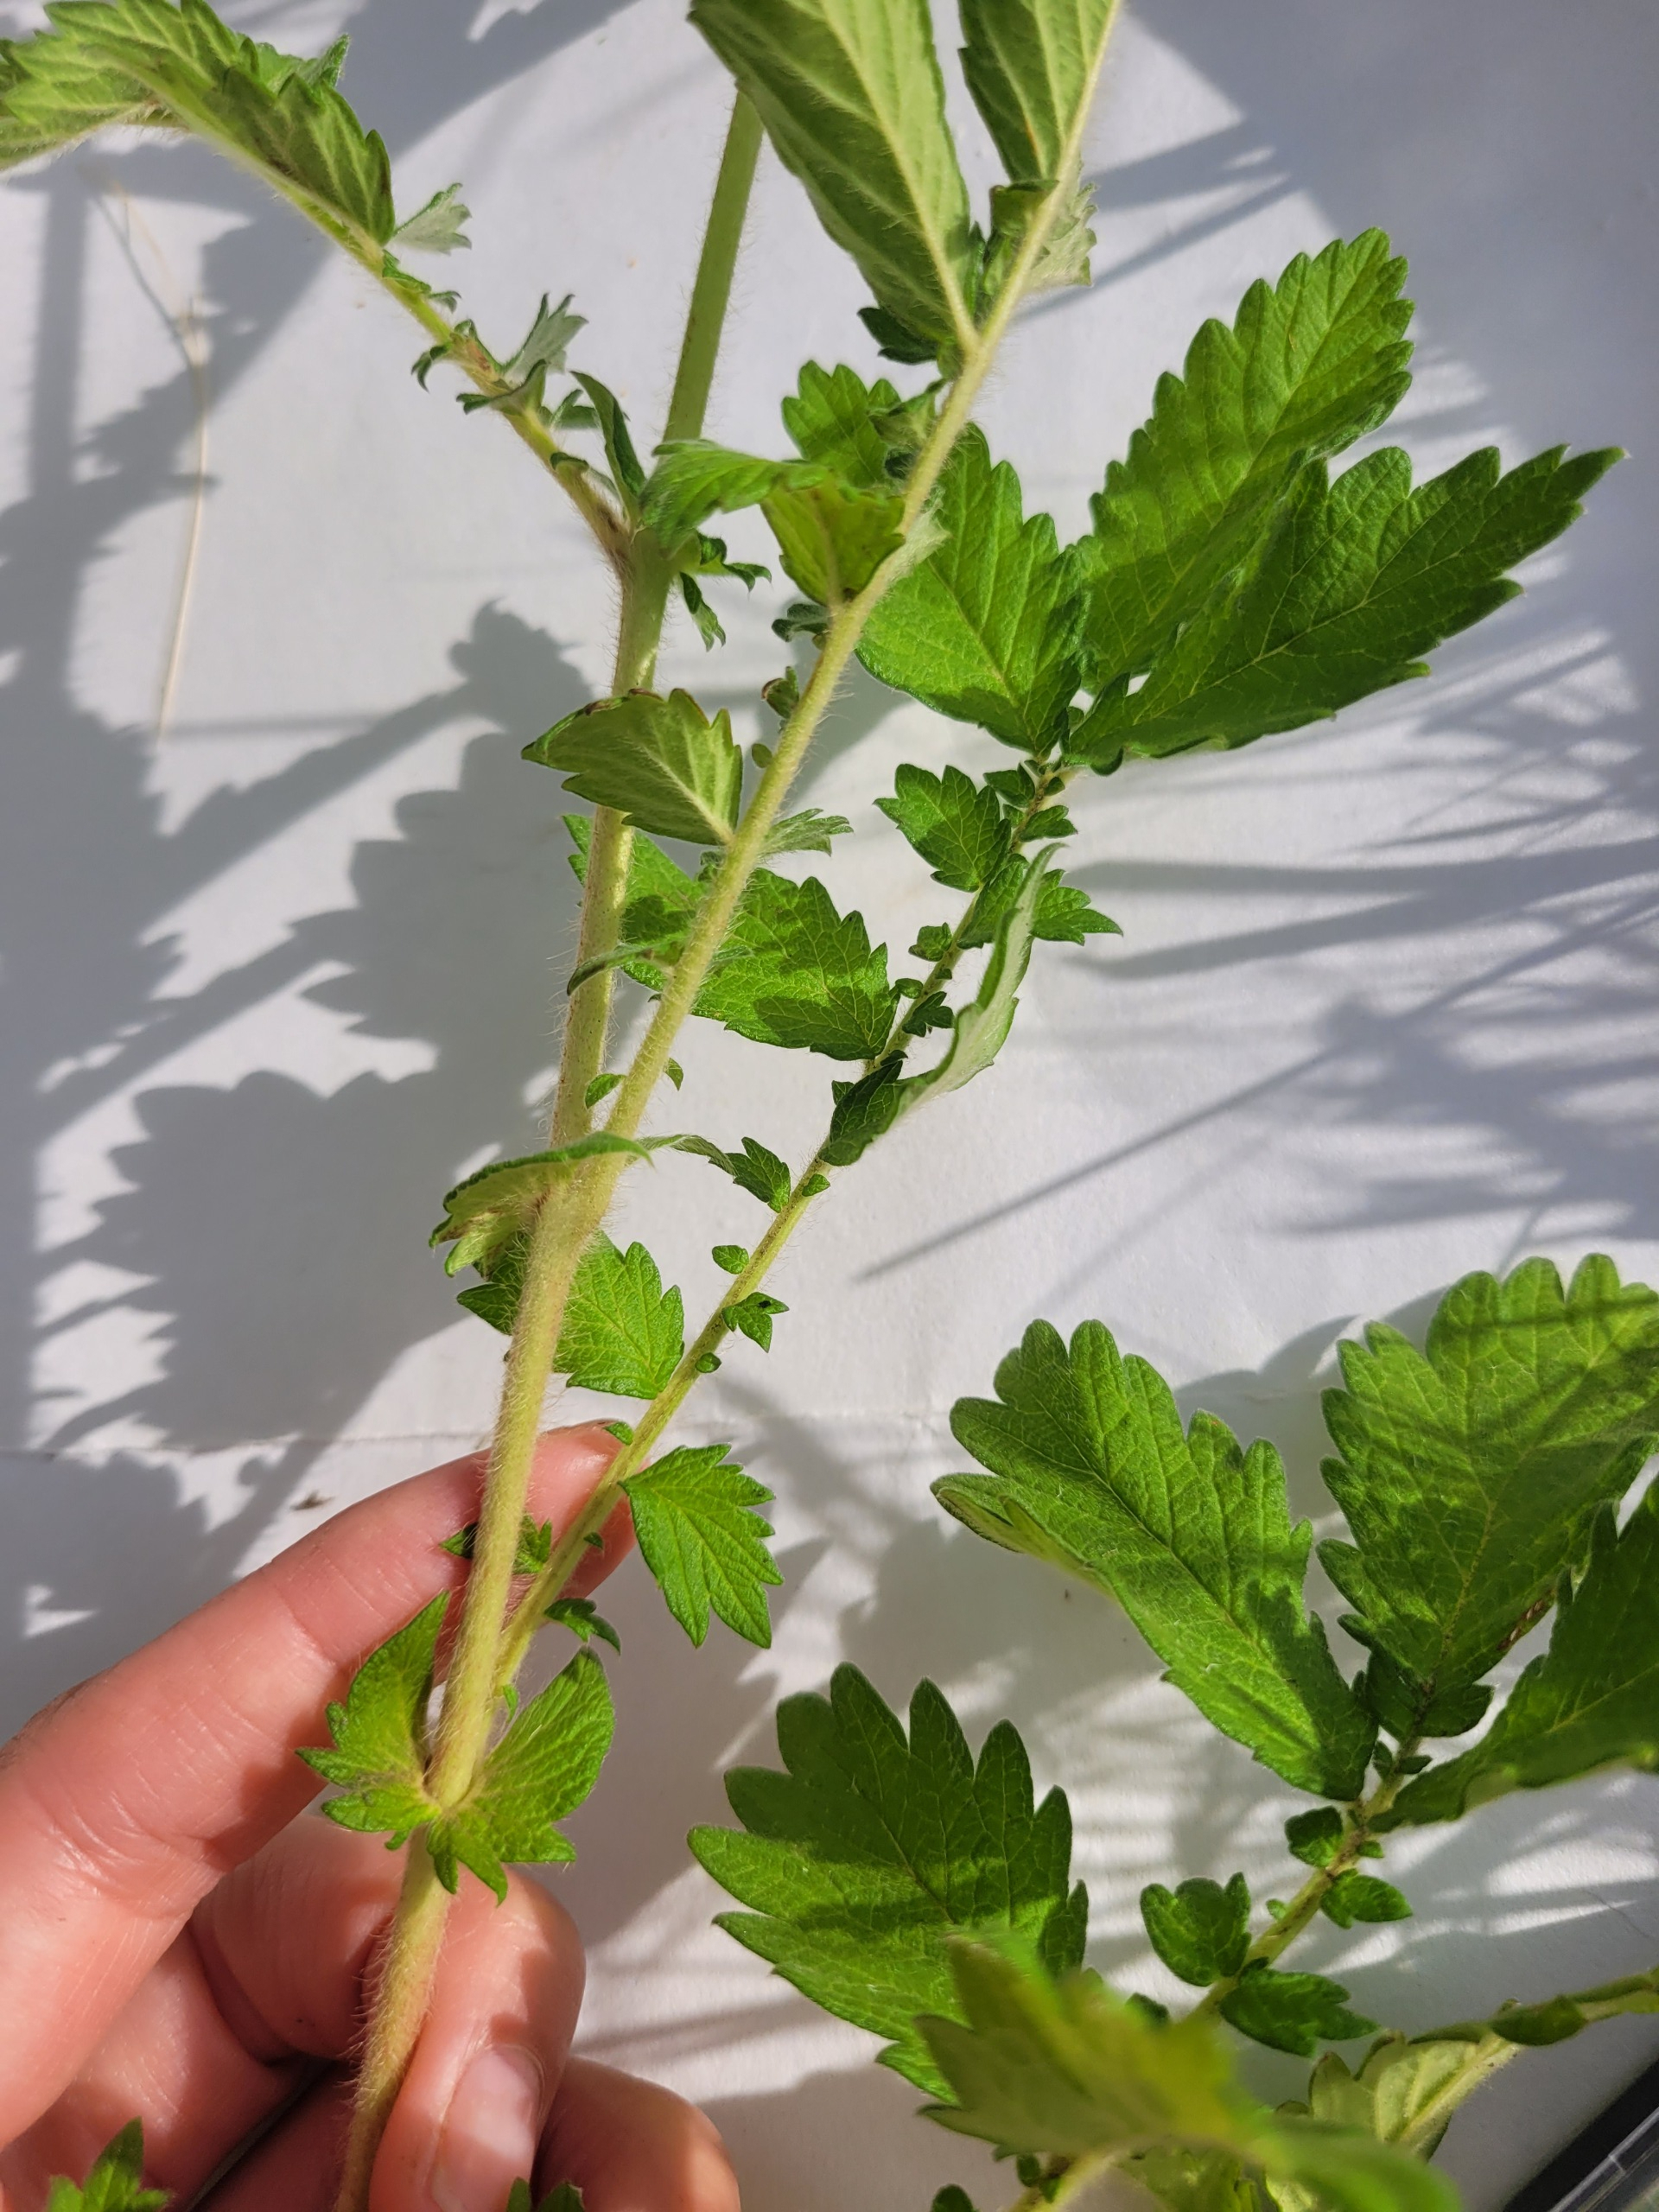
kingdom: Plantae
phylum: Tracheophyta
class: Magnoliopsida
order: Rosales
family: Rosaceae
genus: Agrimonia
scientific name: Agrimonia eupatoria
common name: Almindelig agermåne
